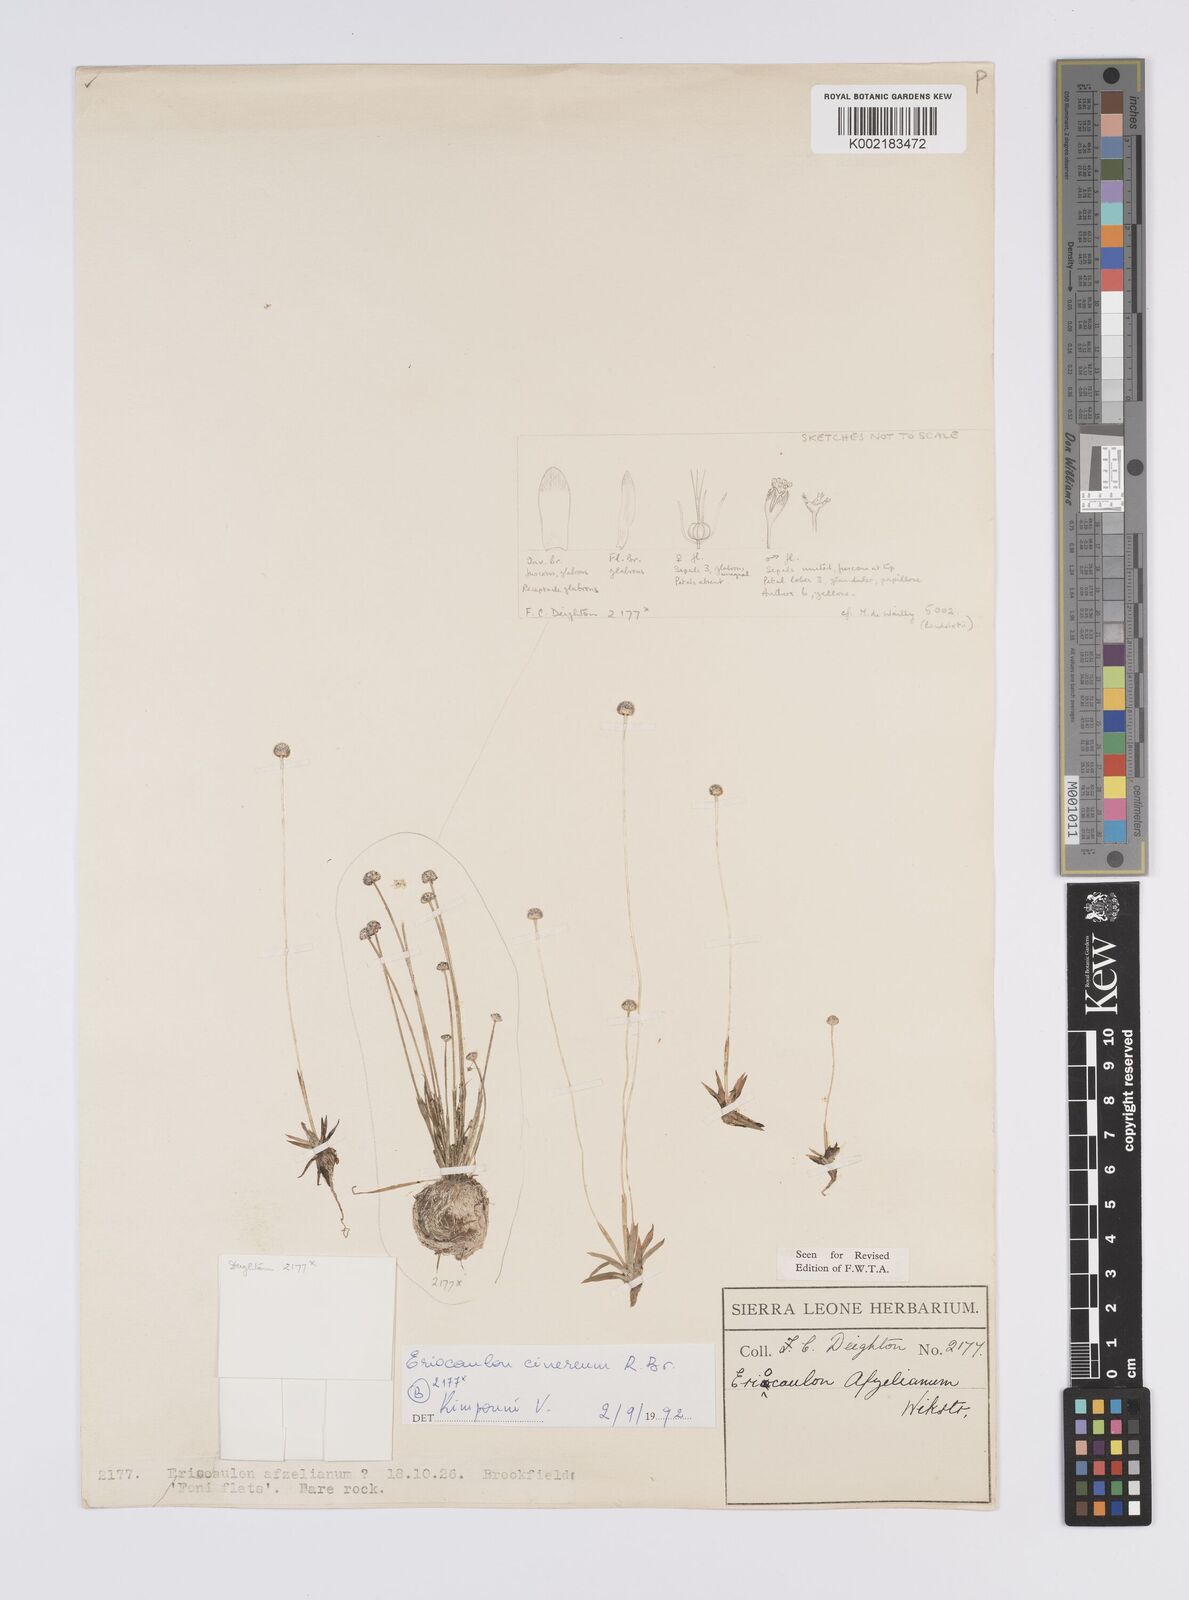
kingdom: Plantae
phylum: Tracheophyta
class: Liliopsida
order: Poales
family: Eriocaulaceae
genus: Eriocaulon
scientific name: Eriocaulon afzelianum
